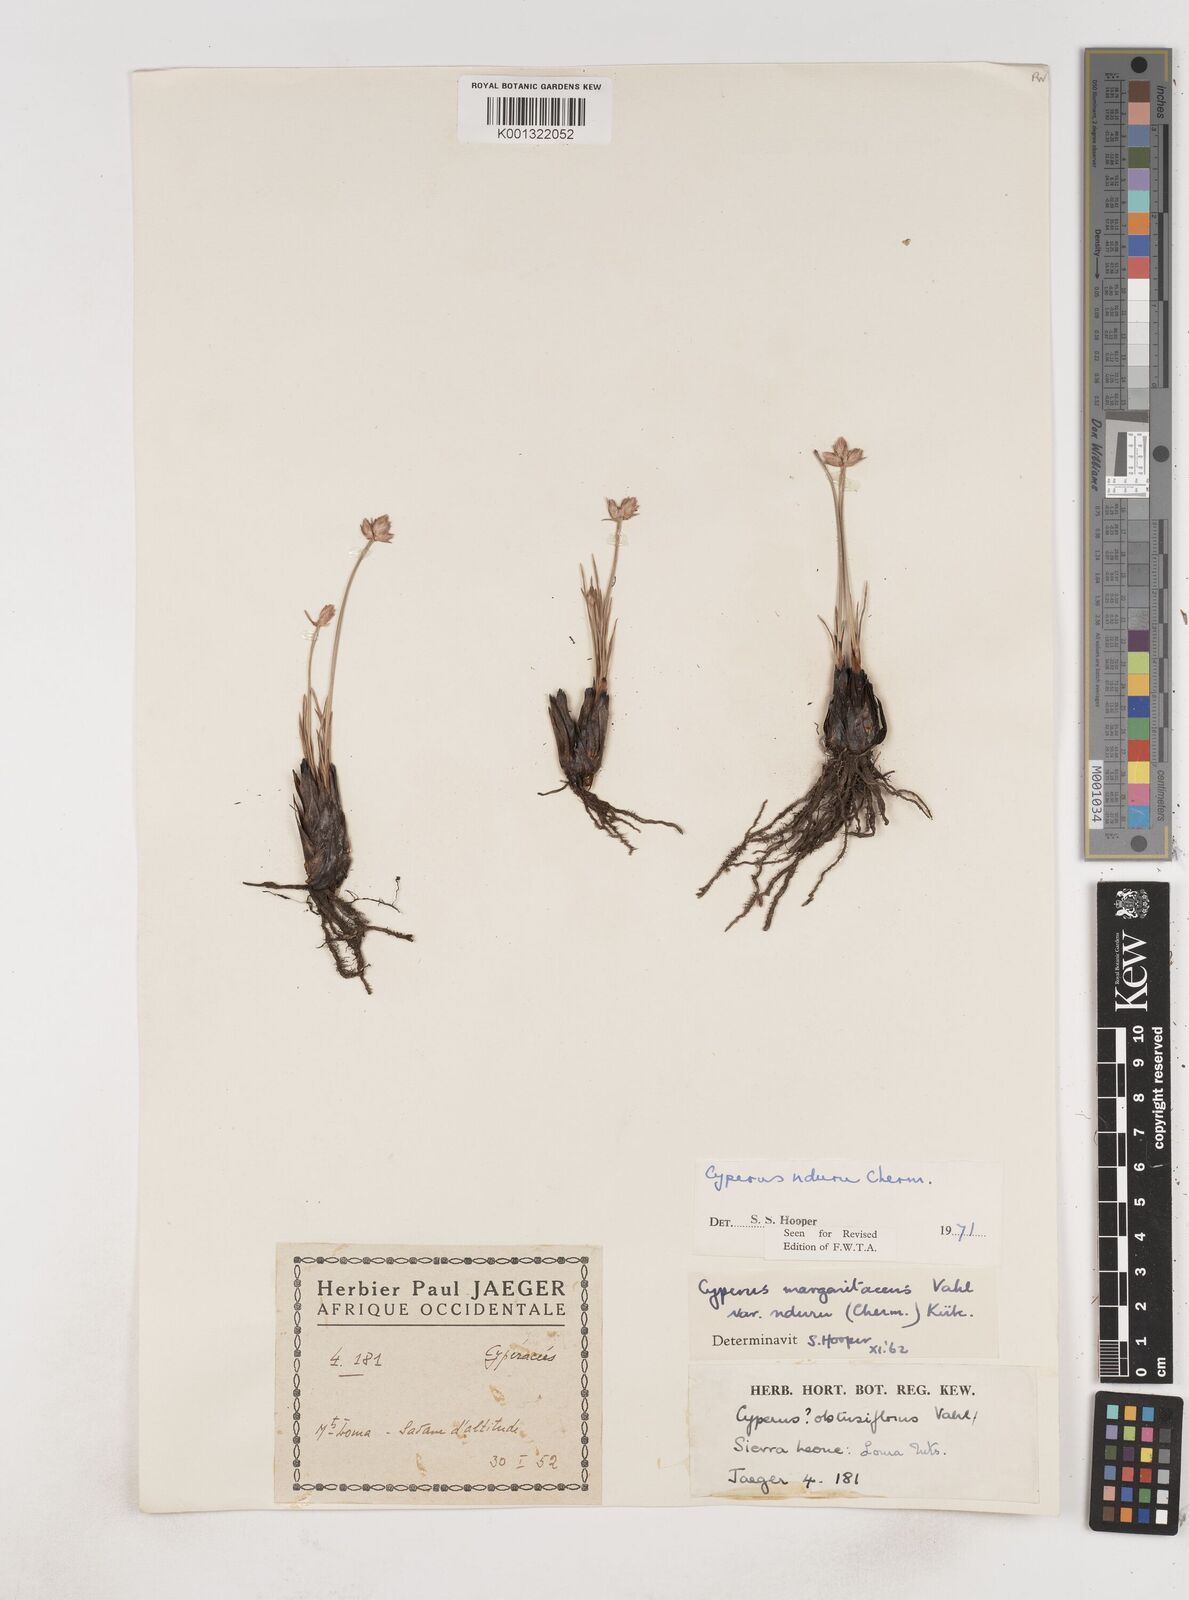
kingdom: Plantae
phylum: Tracheophyta
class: Liliopsida
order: Poales
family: Cyperaceae
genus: Cyperus
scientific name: Cyperus nduru
